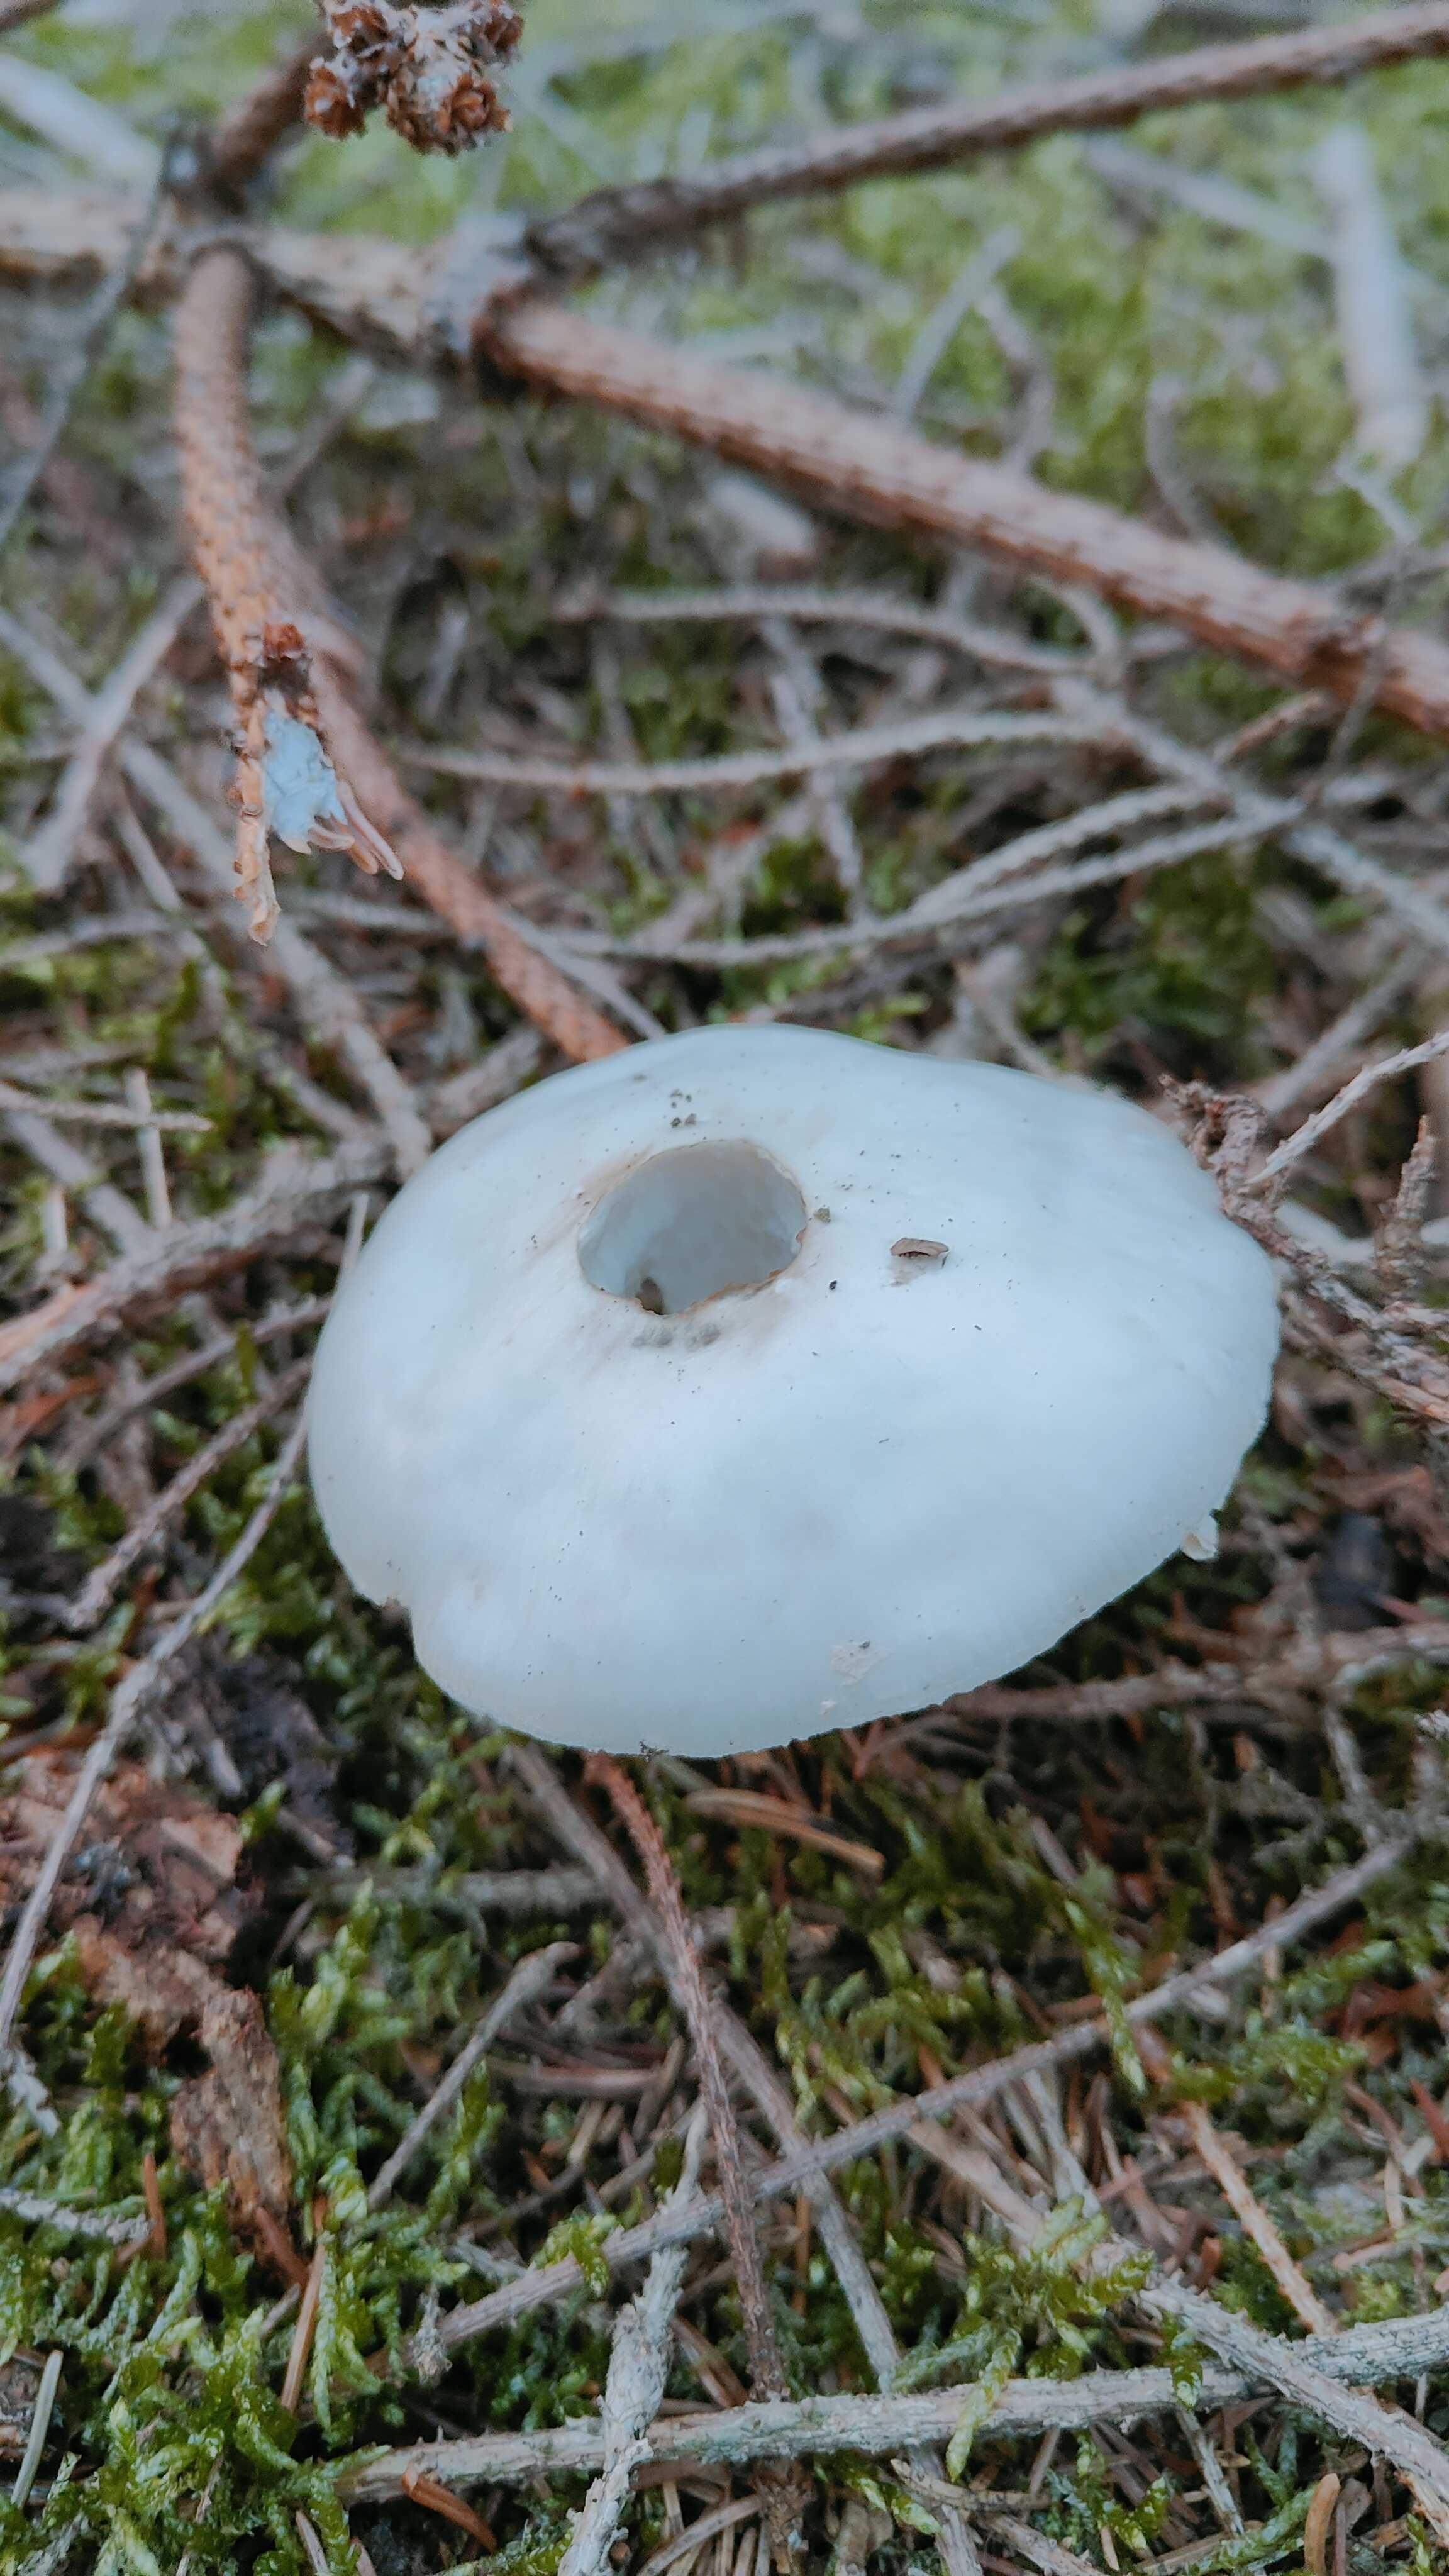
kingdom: Fungi
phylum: Basidiomycota
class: Agaricomycetes
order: Agaricales
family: Amanitaceae
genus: Amanita
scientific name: Amanita rubescens
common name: Blusher
